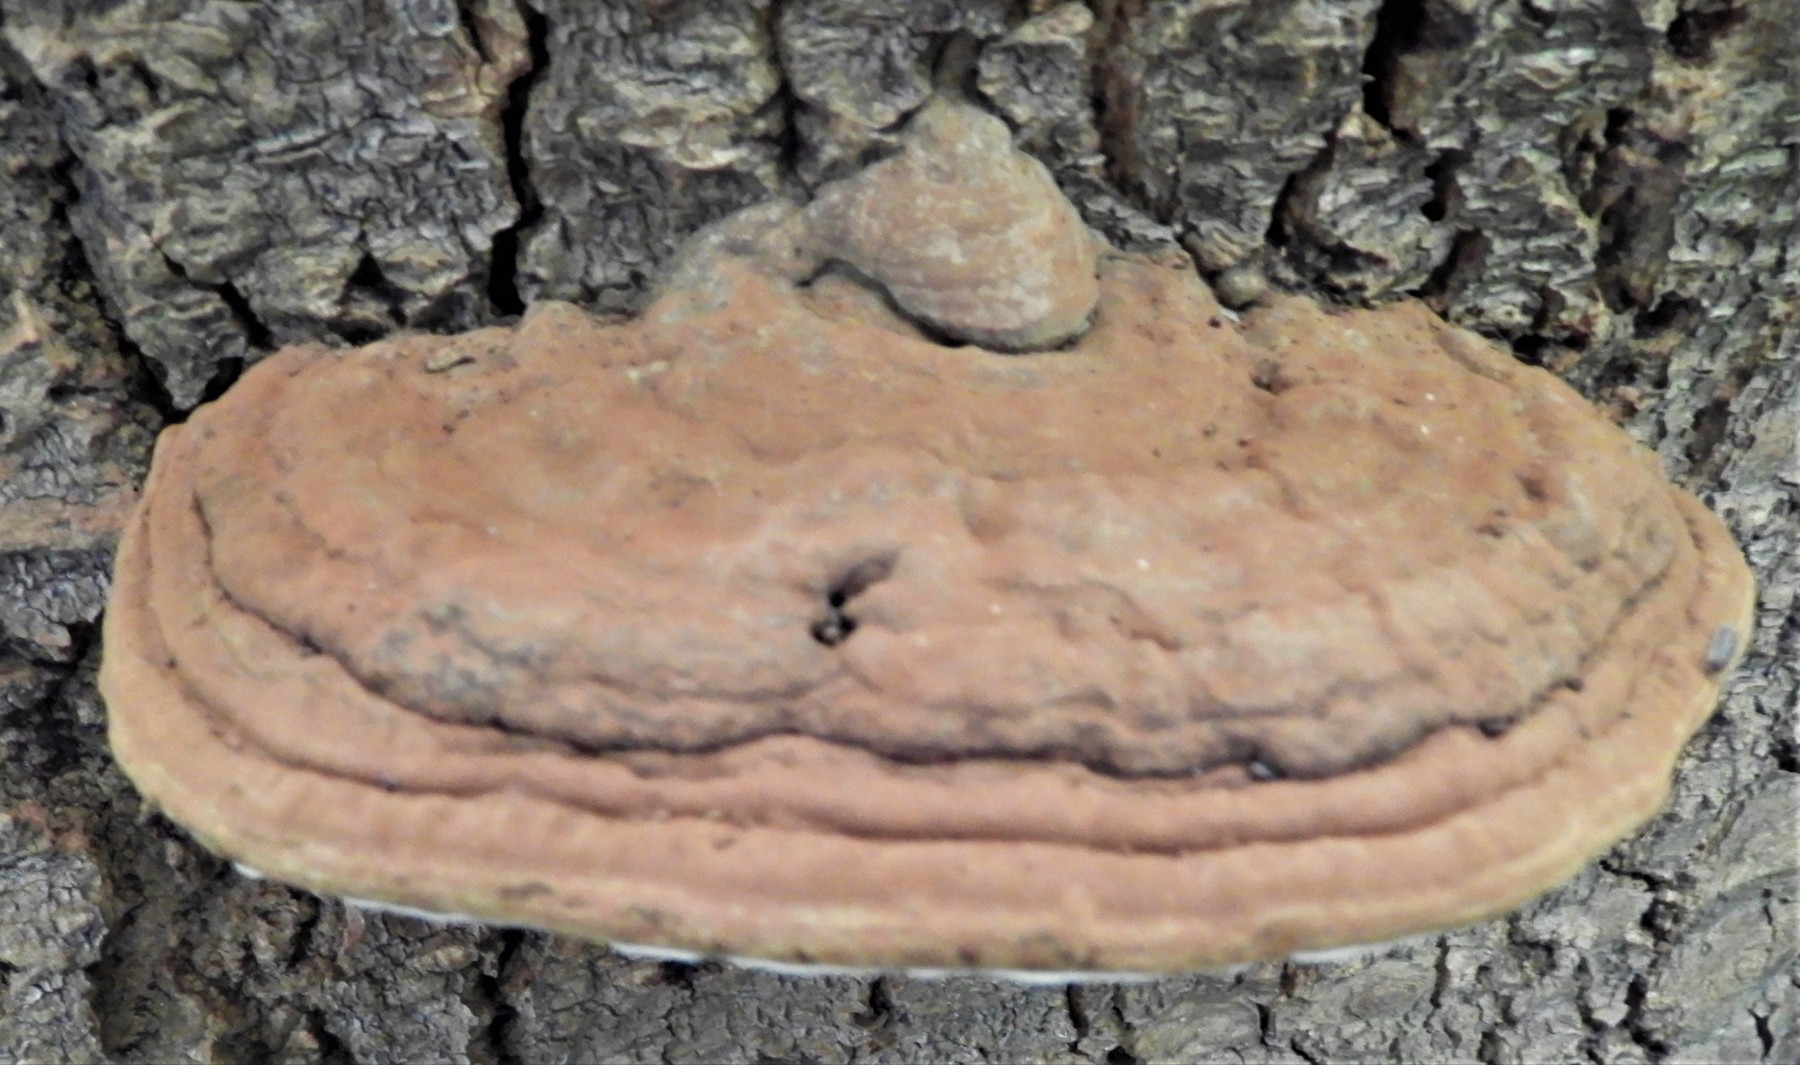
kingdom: Fungi
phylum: Basidiomycota
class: Agaricomycetes
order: Polyporales
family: Polyporaceae
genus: Ganoderma
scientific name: Ganoderma applanatum
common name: flad lakporesvamp
